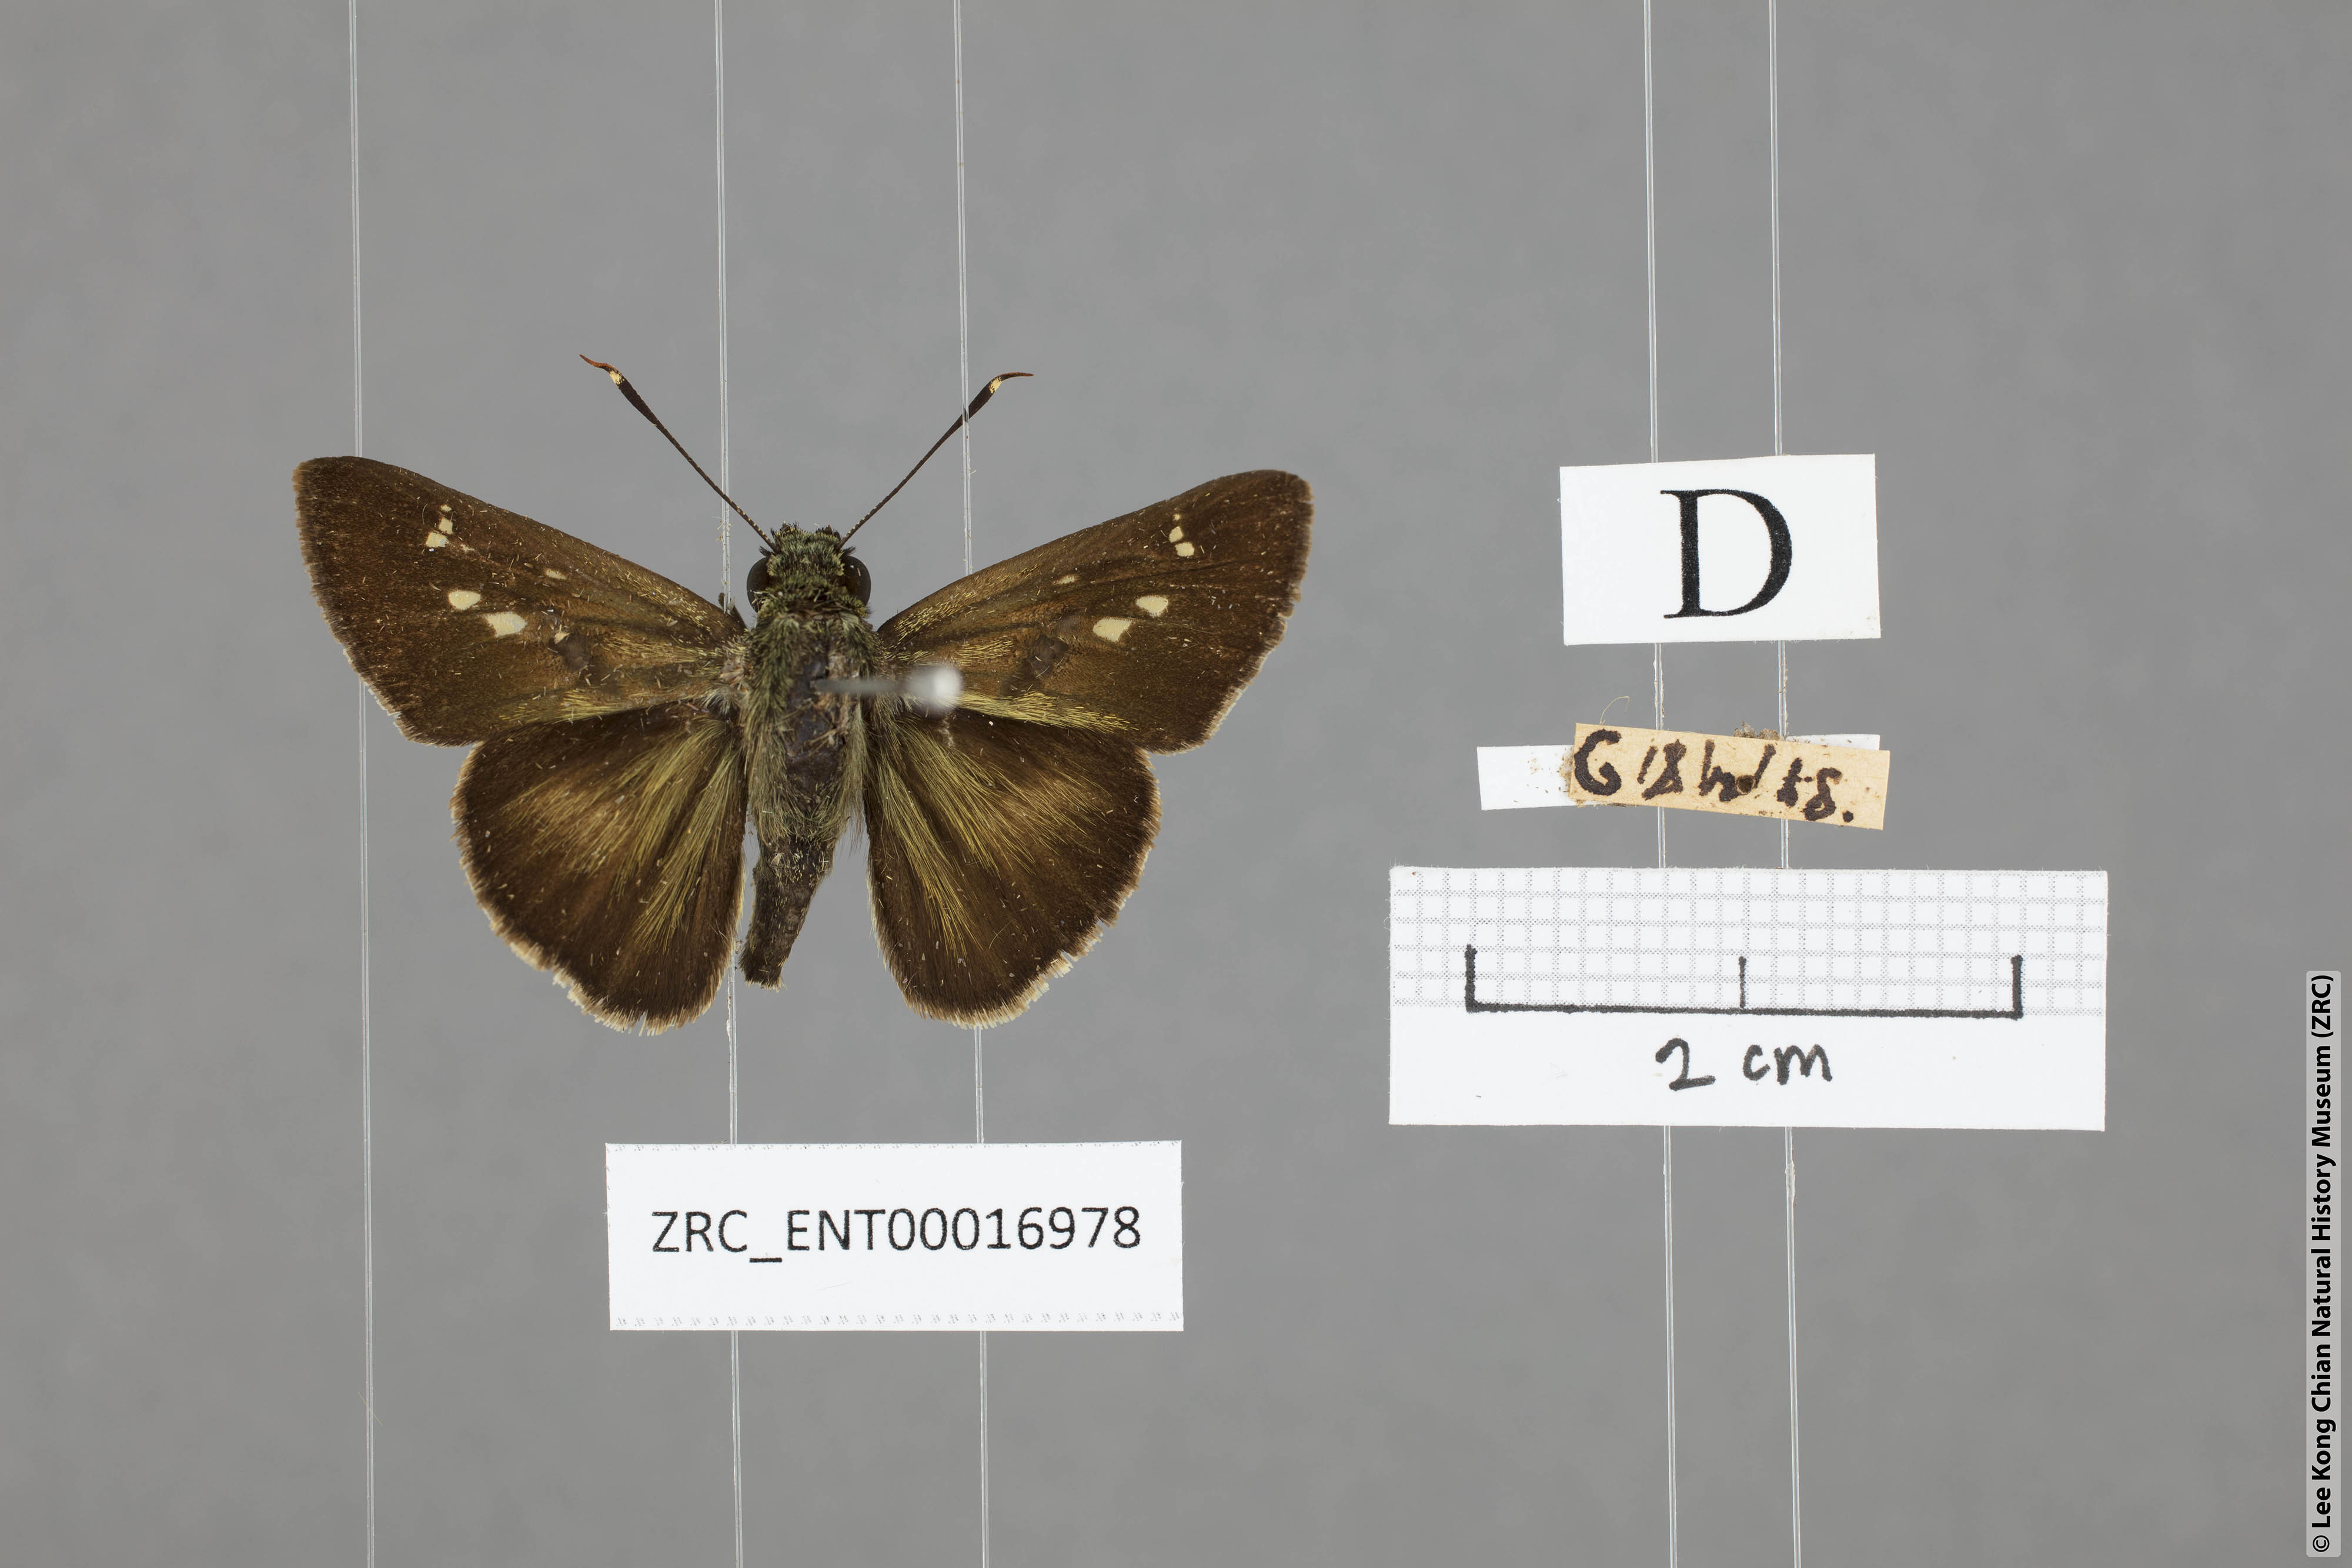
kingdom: Animalia
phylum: Arthropoda
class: Insecta
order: Lepidoptera
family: Hesperiidae
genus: Halpe
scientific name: Halpe elana
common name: Narrow-banded ace
